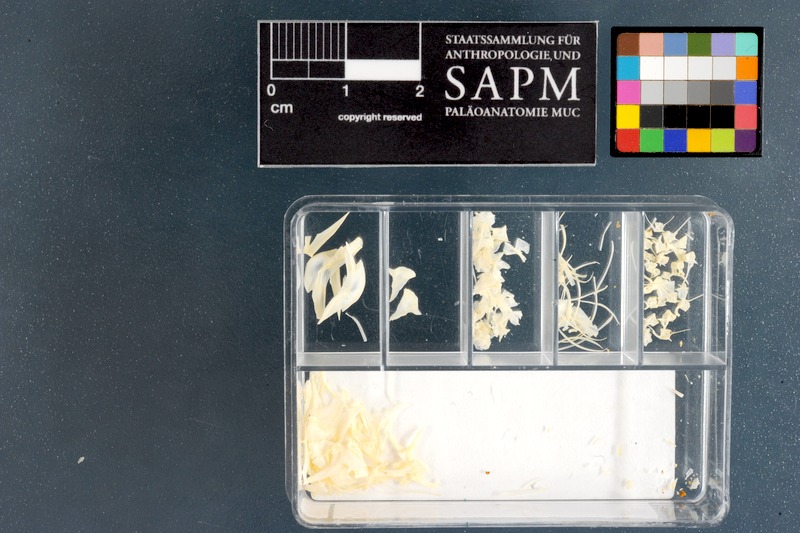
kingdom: Animalia
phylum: Chordata
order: Gobiesociformes
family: Gobiesocidae
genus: Chorisochismus
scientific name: Chorisochismus dentex
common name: Rocksucker
